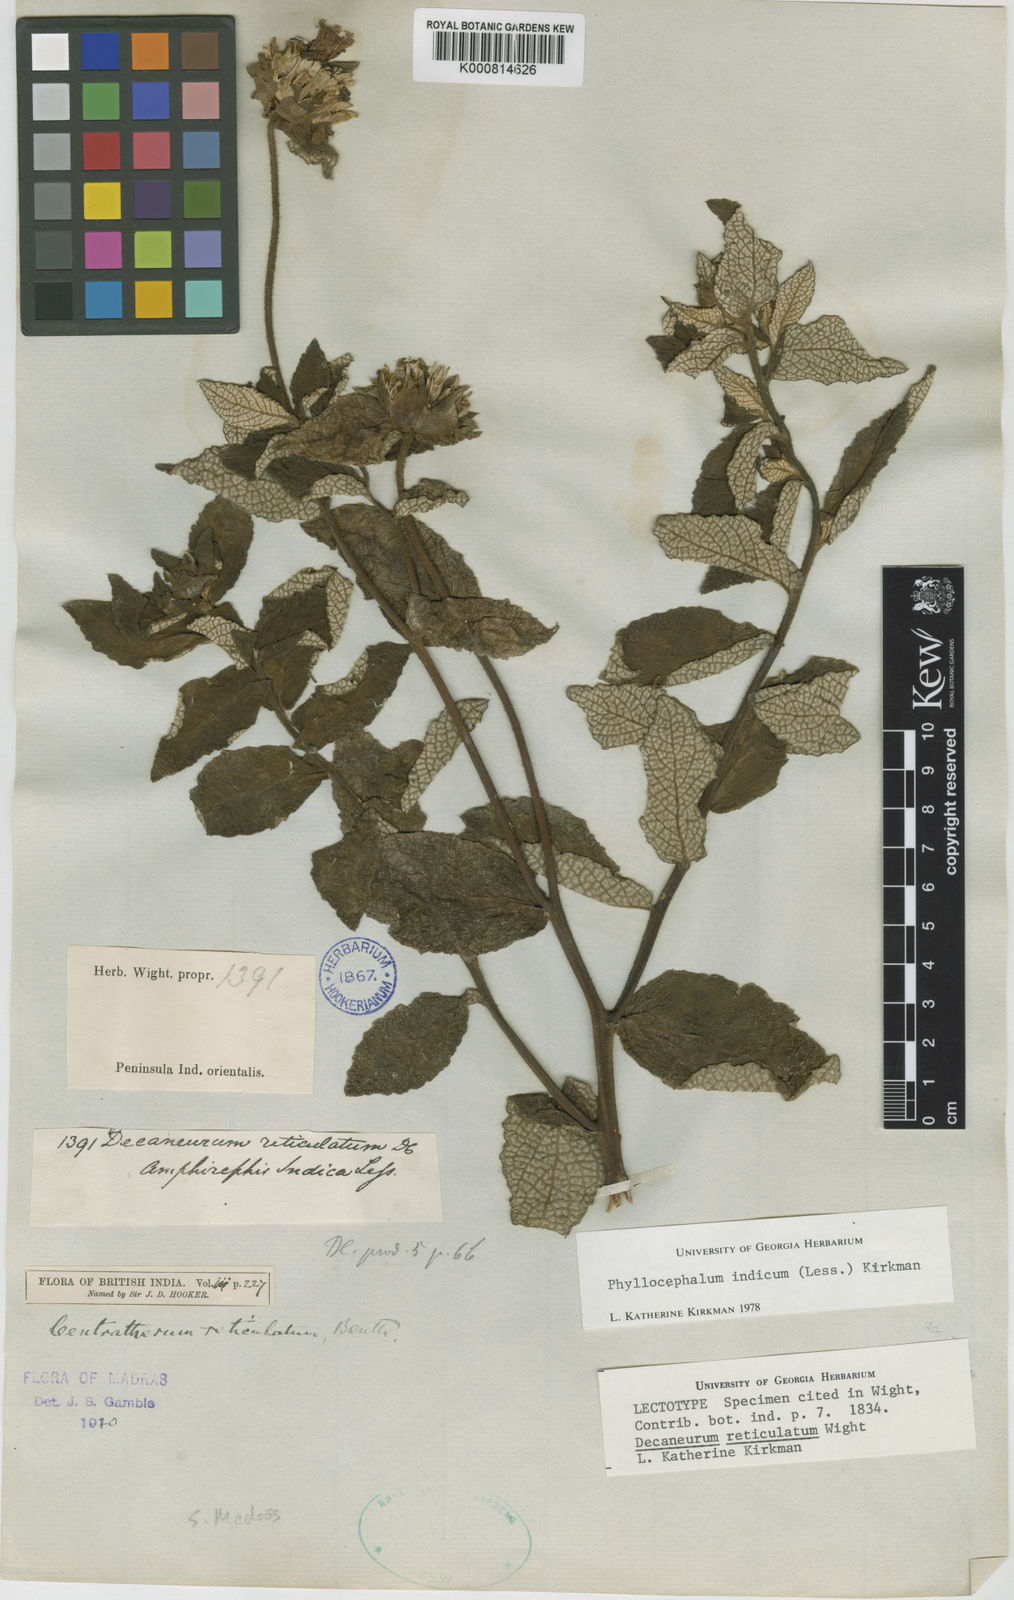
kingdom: Plantae
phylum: Tracheophyta
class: Magnoliopsida
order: Asterales
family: Asteraceae
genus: Phyllocephalum
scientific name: Phyllocephalum indicum
